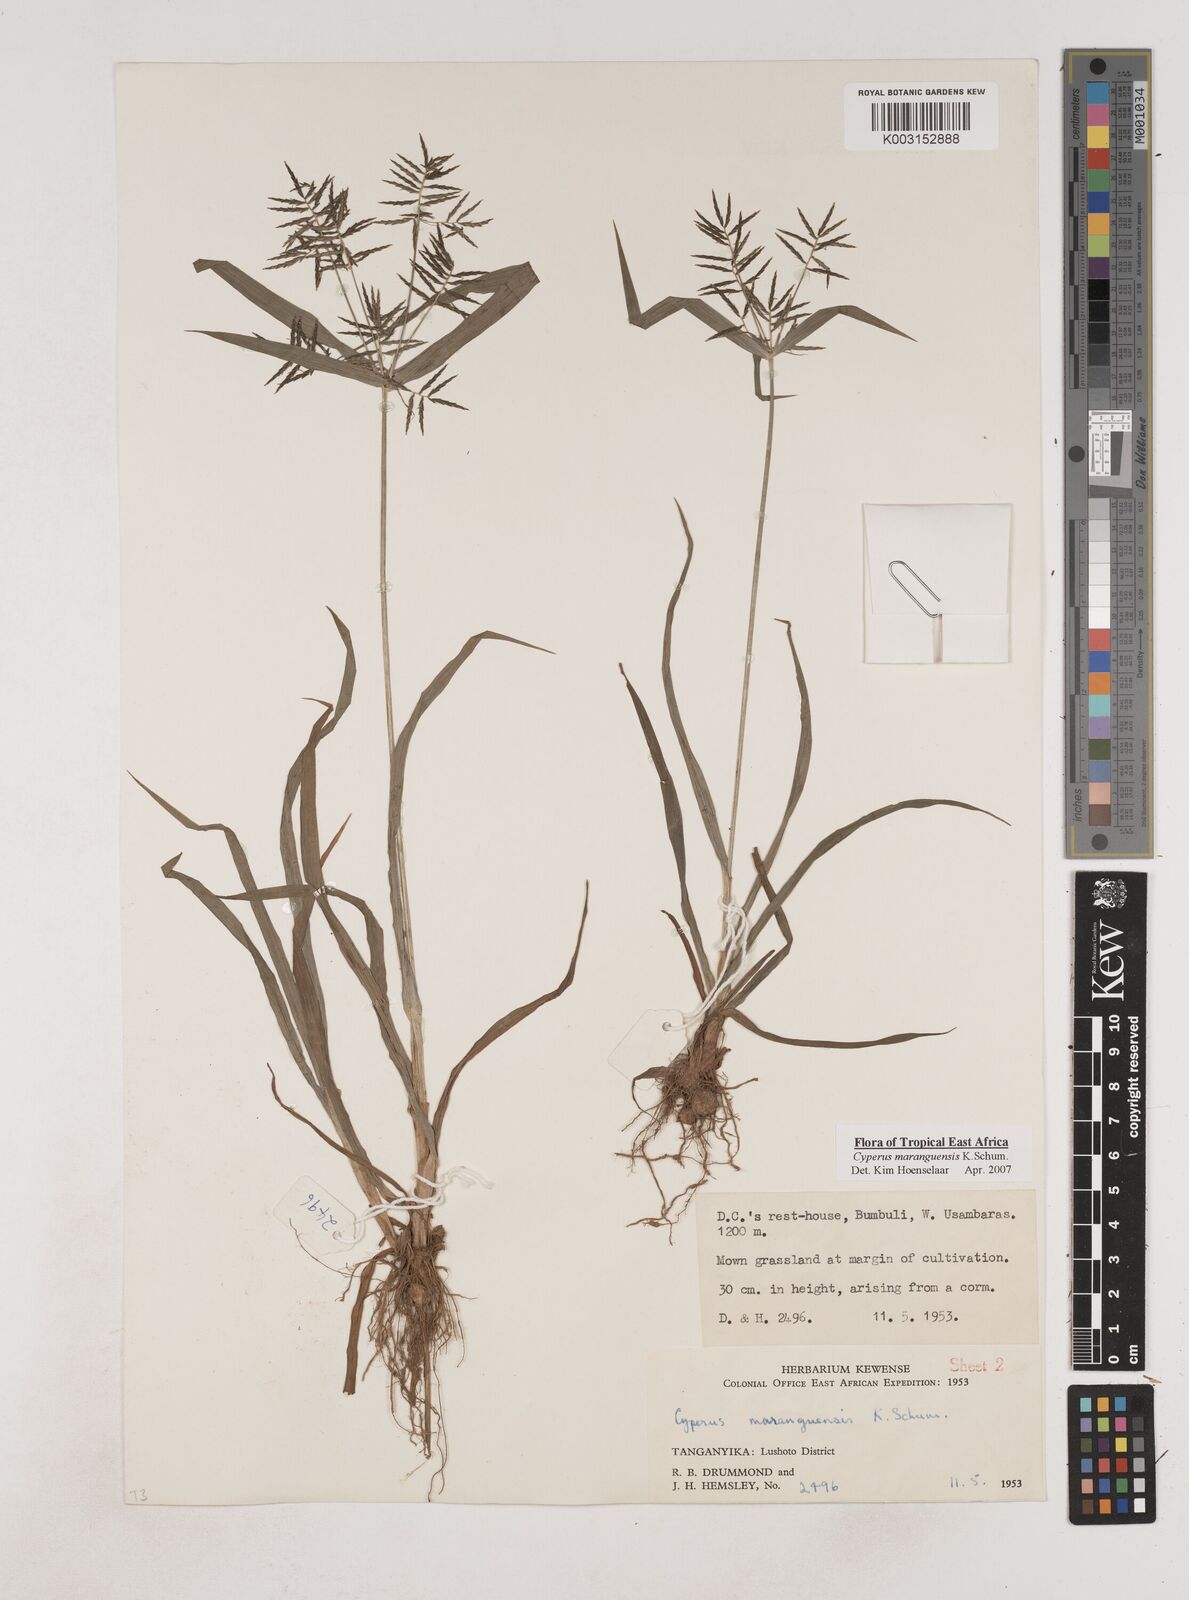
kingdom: Plantae
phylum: Tracheophyta
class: Liliopsida
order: Poales
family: Cyperaceae
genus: Cyperus
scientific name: Cyperus maranguensis
